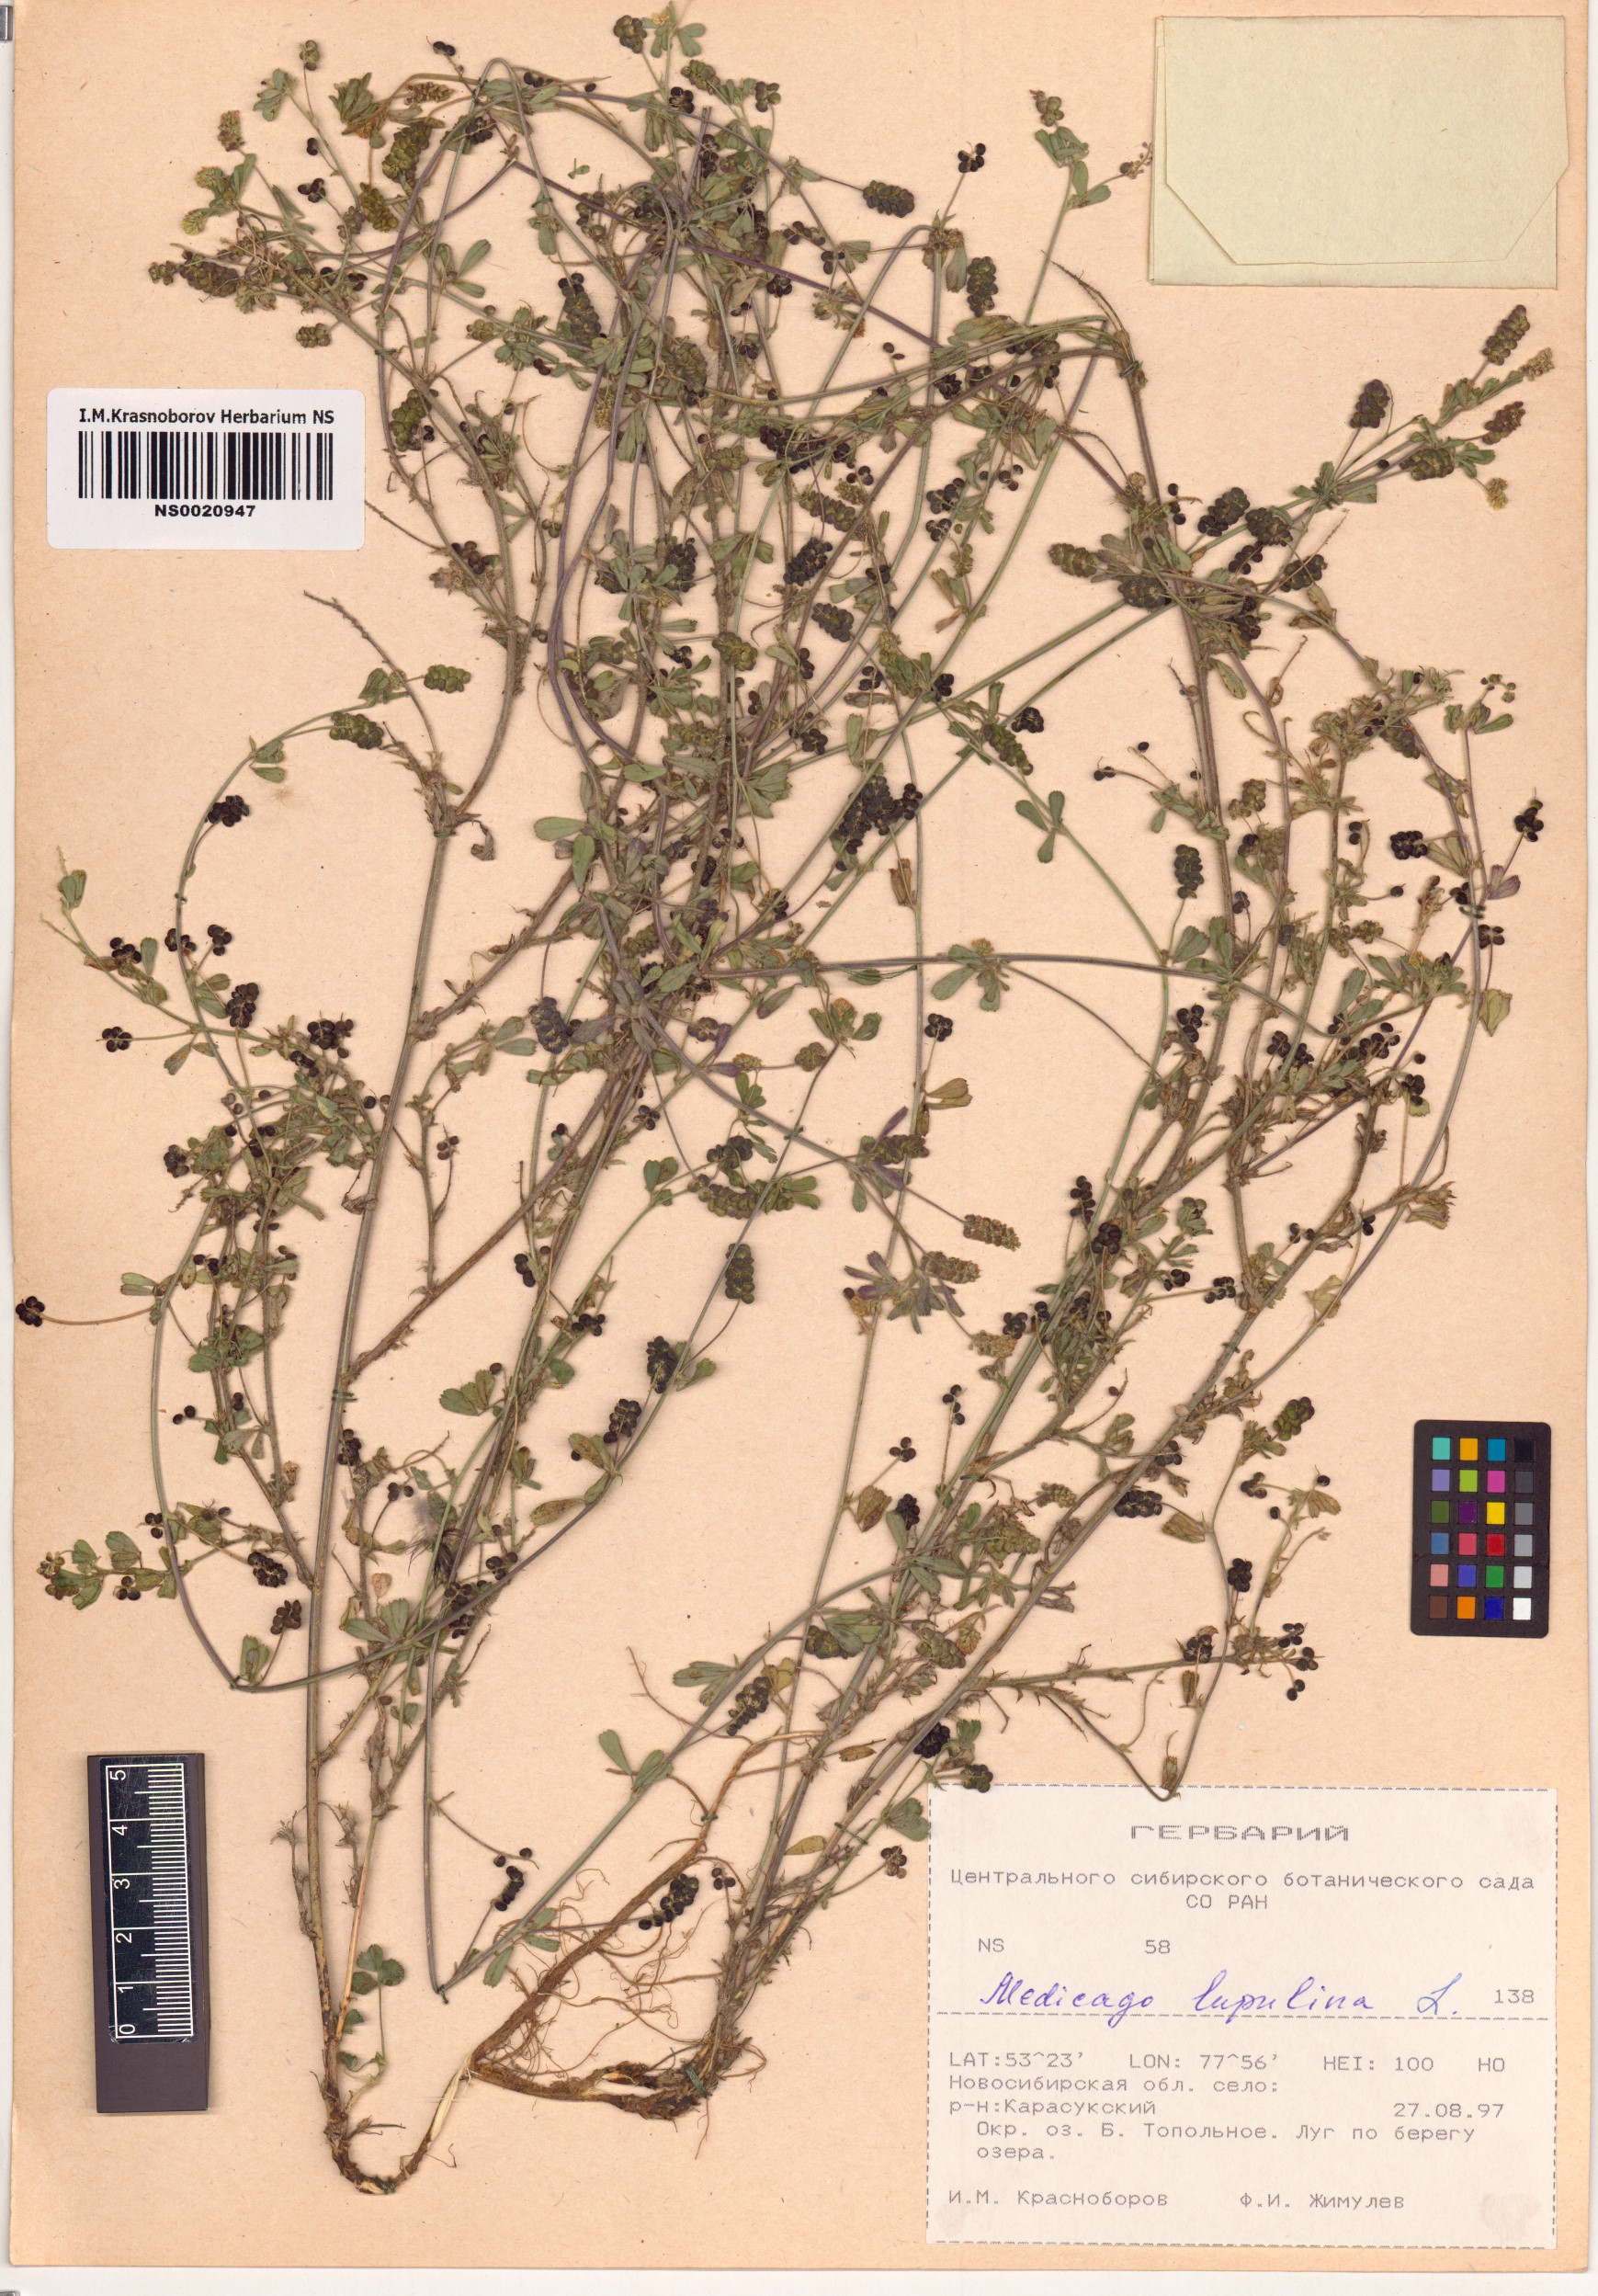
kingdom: Plantae
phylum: Tracheophyta
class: Magnoliopsida
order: Fabales
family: Fabaceae
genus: Medicago
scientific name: Medicago lupulina
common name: Black medick
